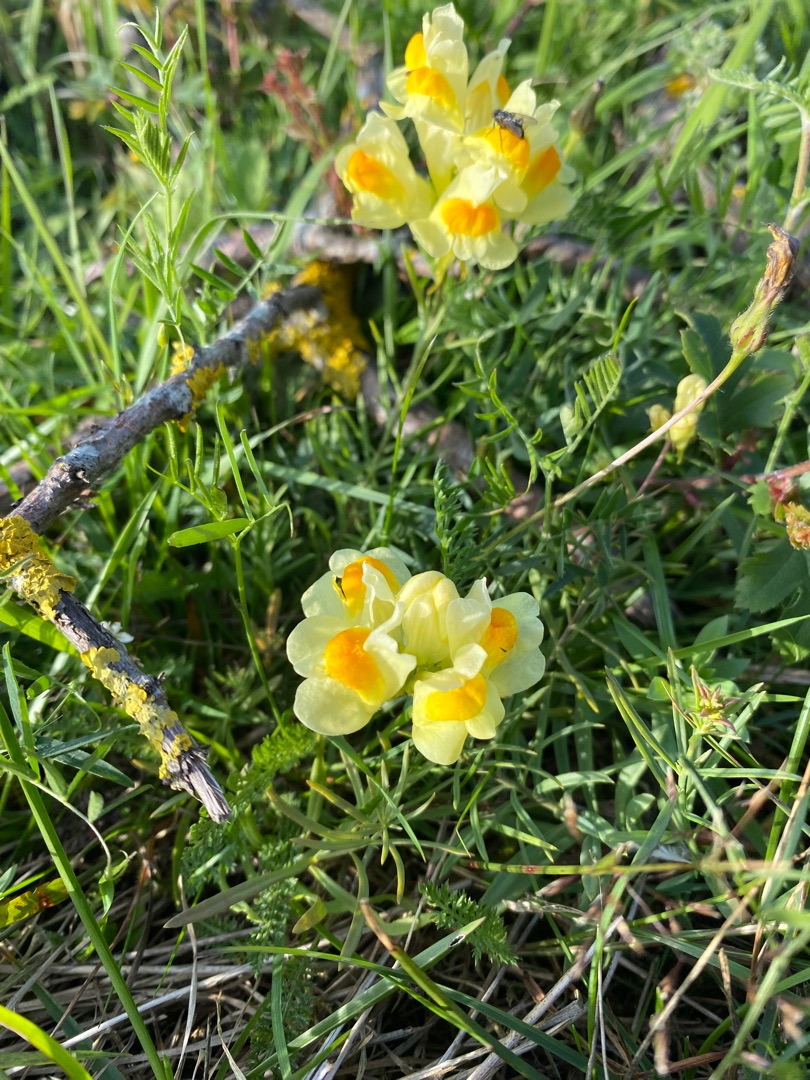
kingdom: Plantae
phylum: Tracheophyta
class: Magnoliopsida
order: Lamiales
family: Plantaginaceae
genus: Linaria
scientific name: Linaria vulgaris
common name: Almindelig torskemund
